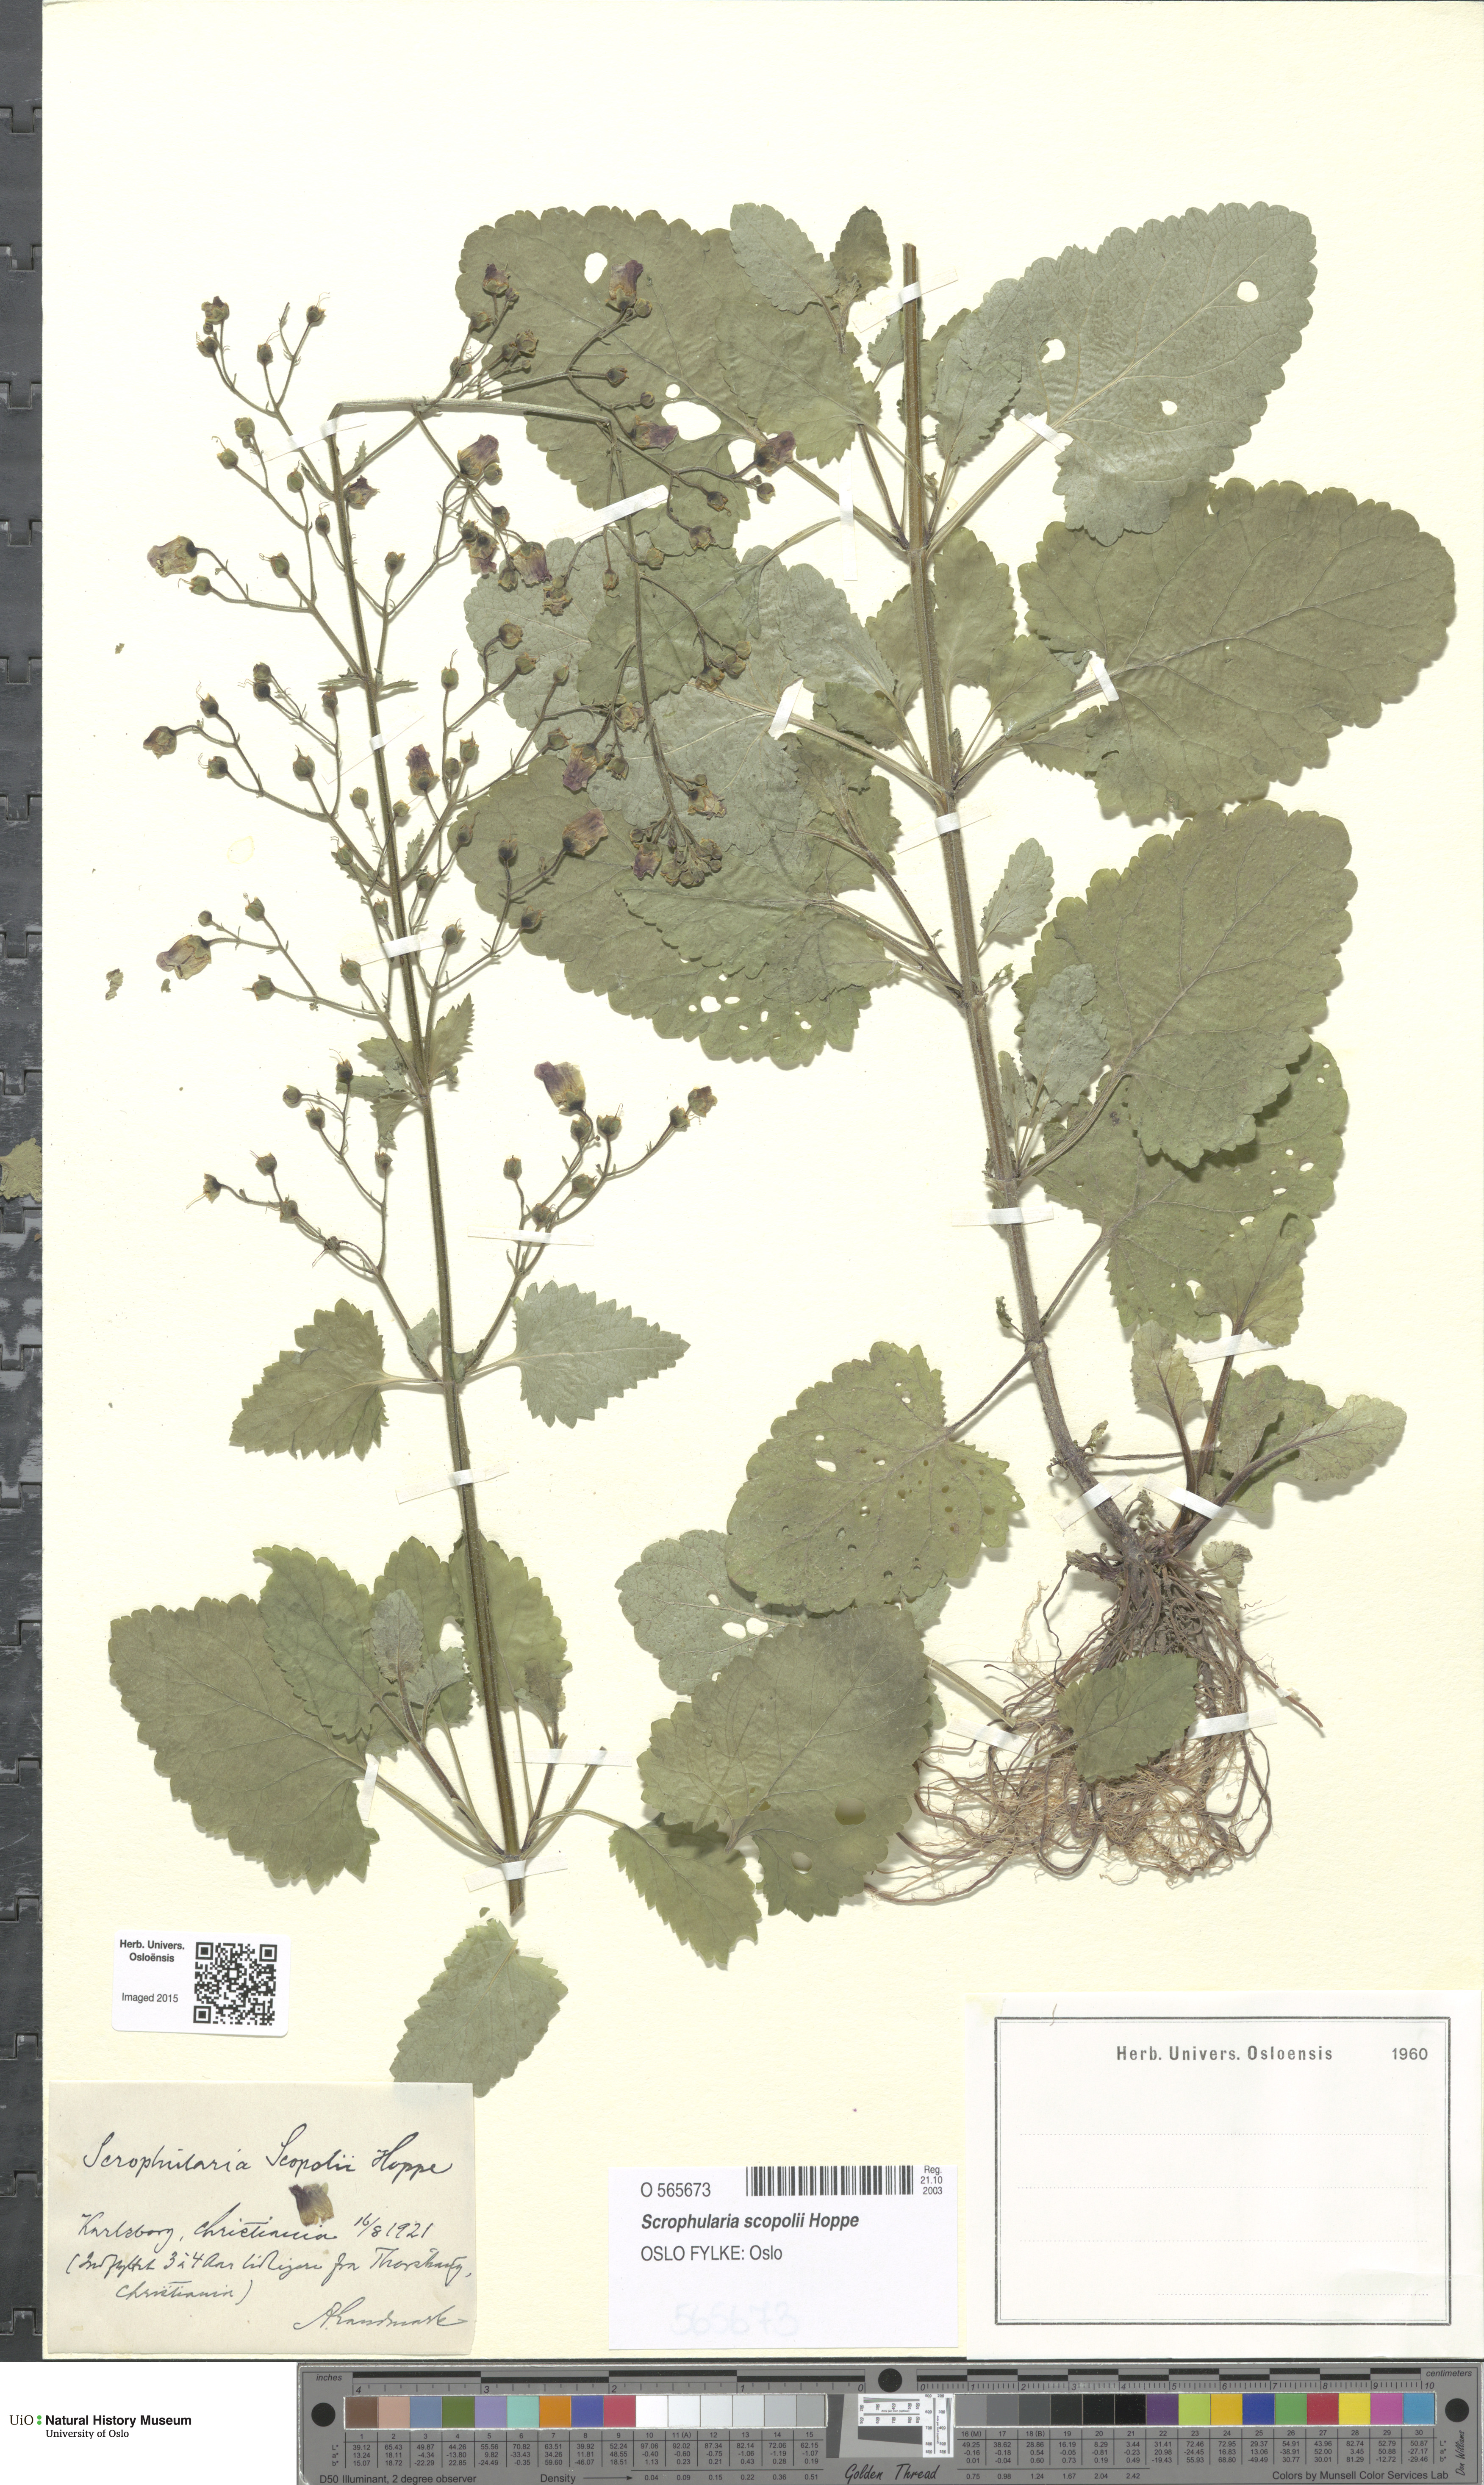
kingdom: Plantae
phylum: Tracheophyta
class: Magnoliopsida
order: Lamiales
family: Scrophulariaceae
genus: Scrophularia
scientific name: Scrophularia scopolii
